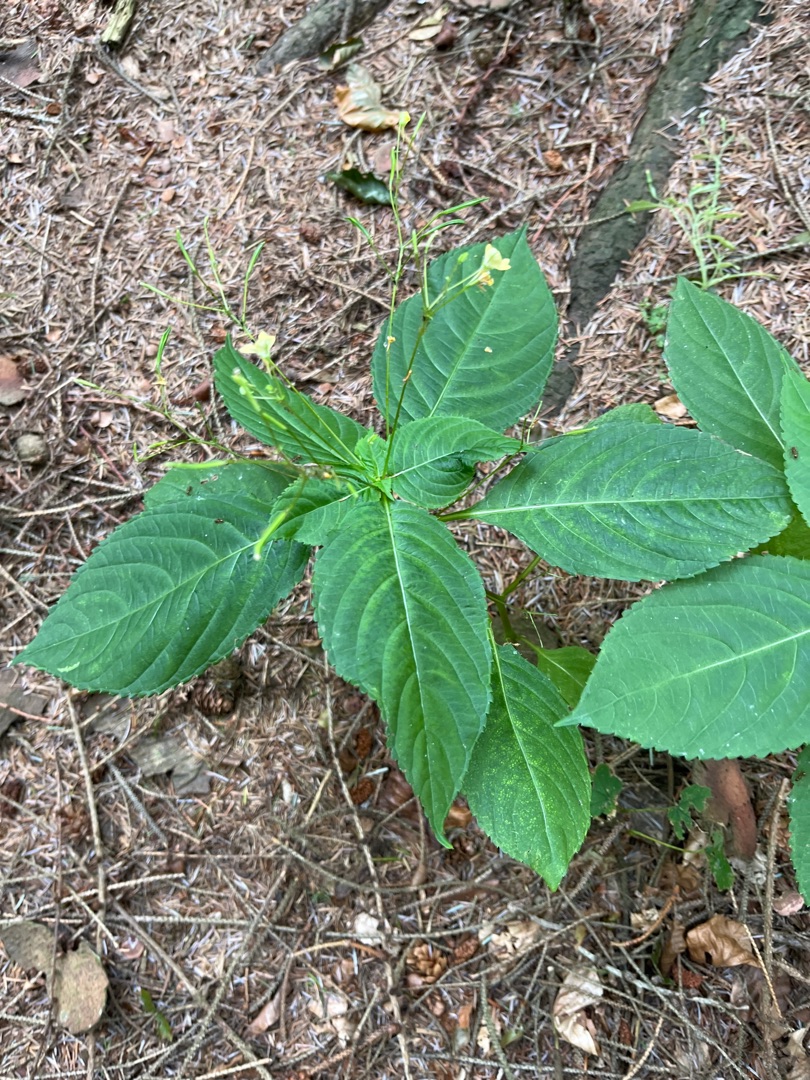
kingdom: Plantae
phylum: Tracheophyta
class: Magnoliopsida
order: Ericales
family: Balsaminaceae
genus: Impatiens
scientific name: Impatiens parviflora
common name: Småblomstret balsamin
